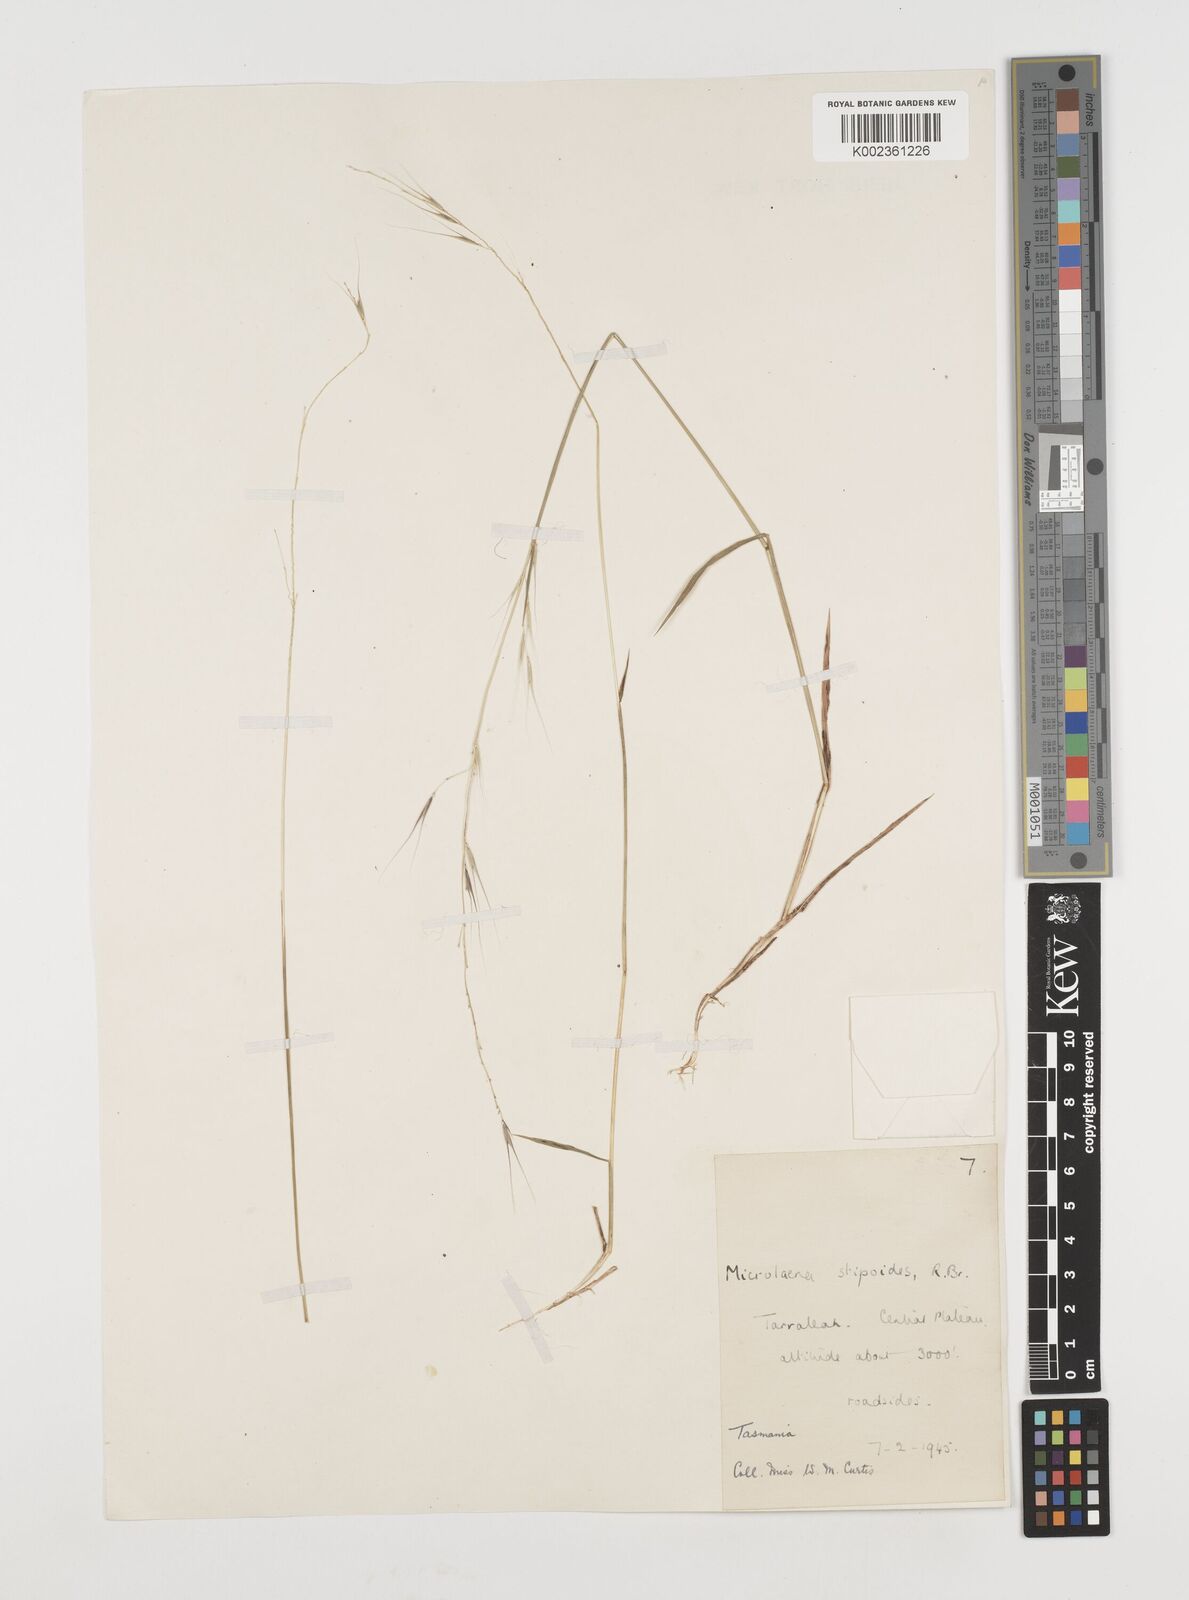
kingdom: Plantae
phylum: Tracheophyta
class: Liliopsida
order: Poales
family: Poaceae
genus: Microlaena
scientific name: Microlaena stipoides
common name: Meadow ricegrass
